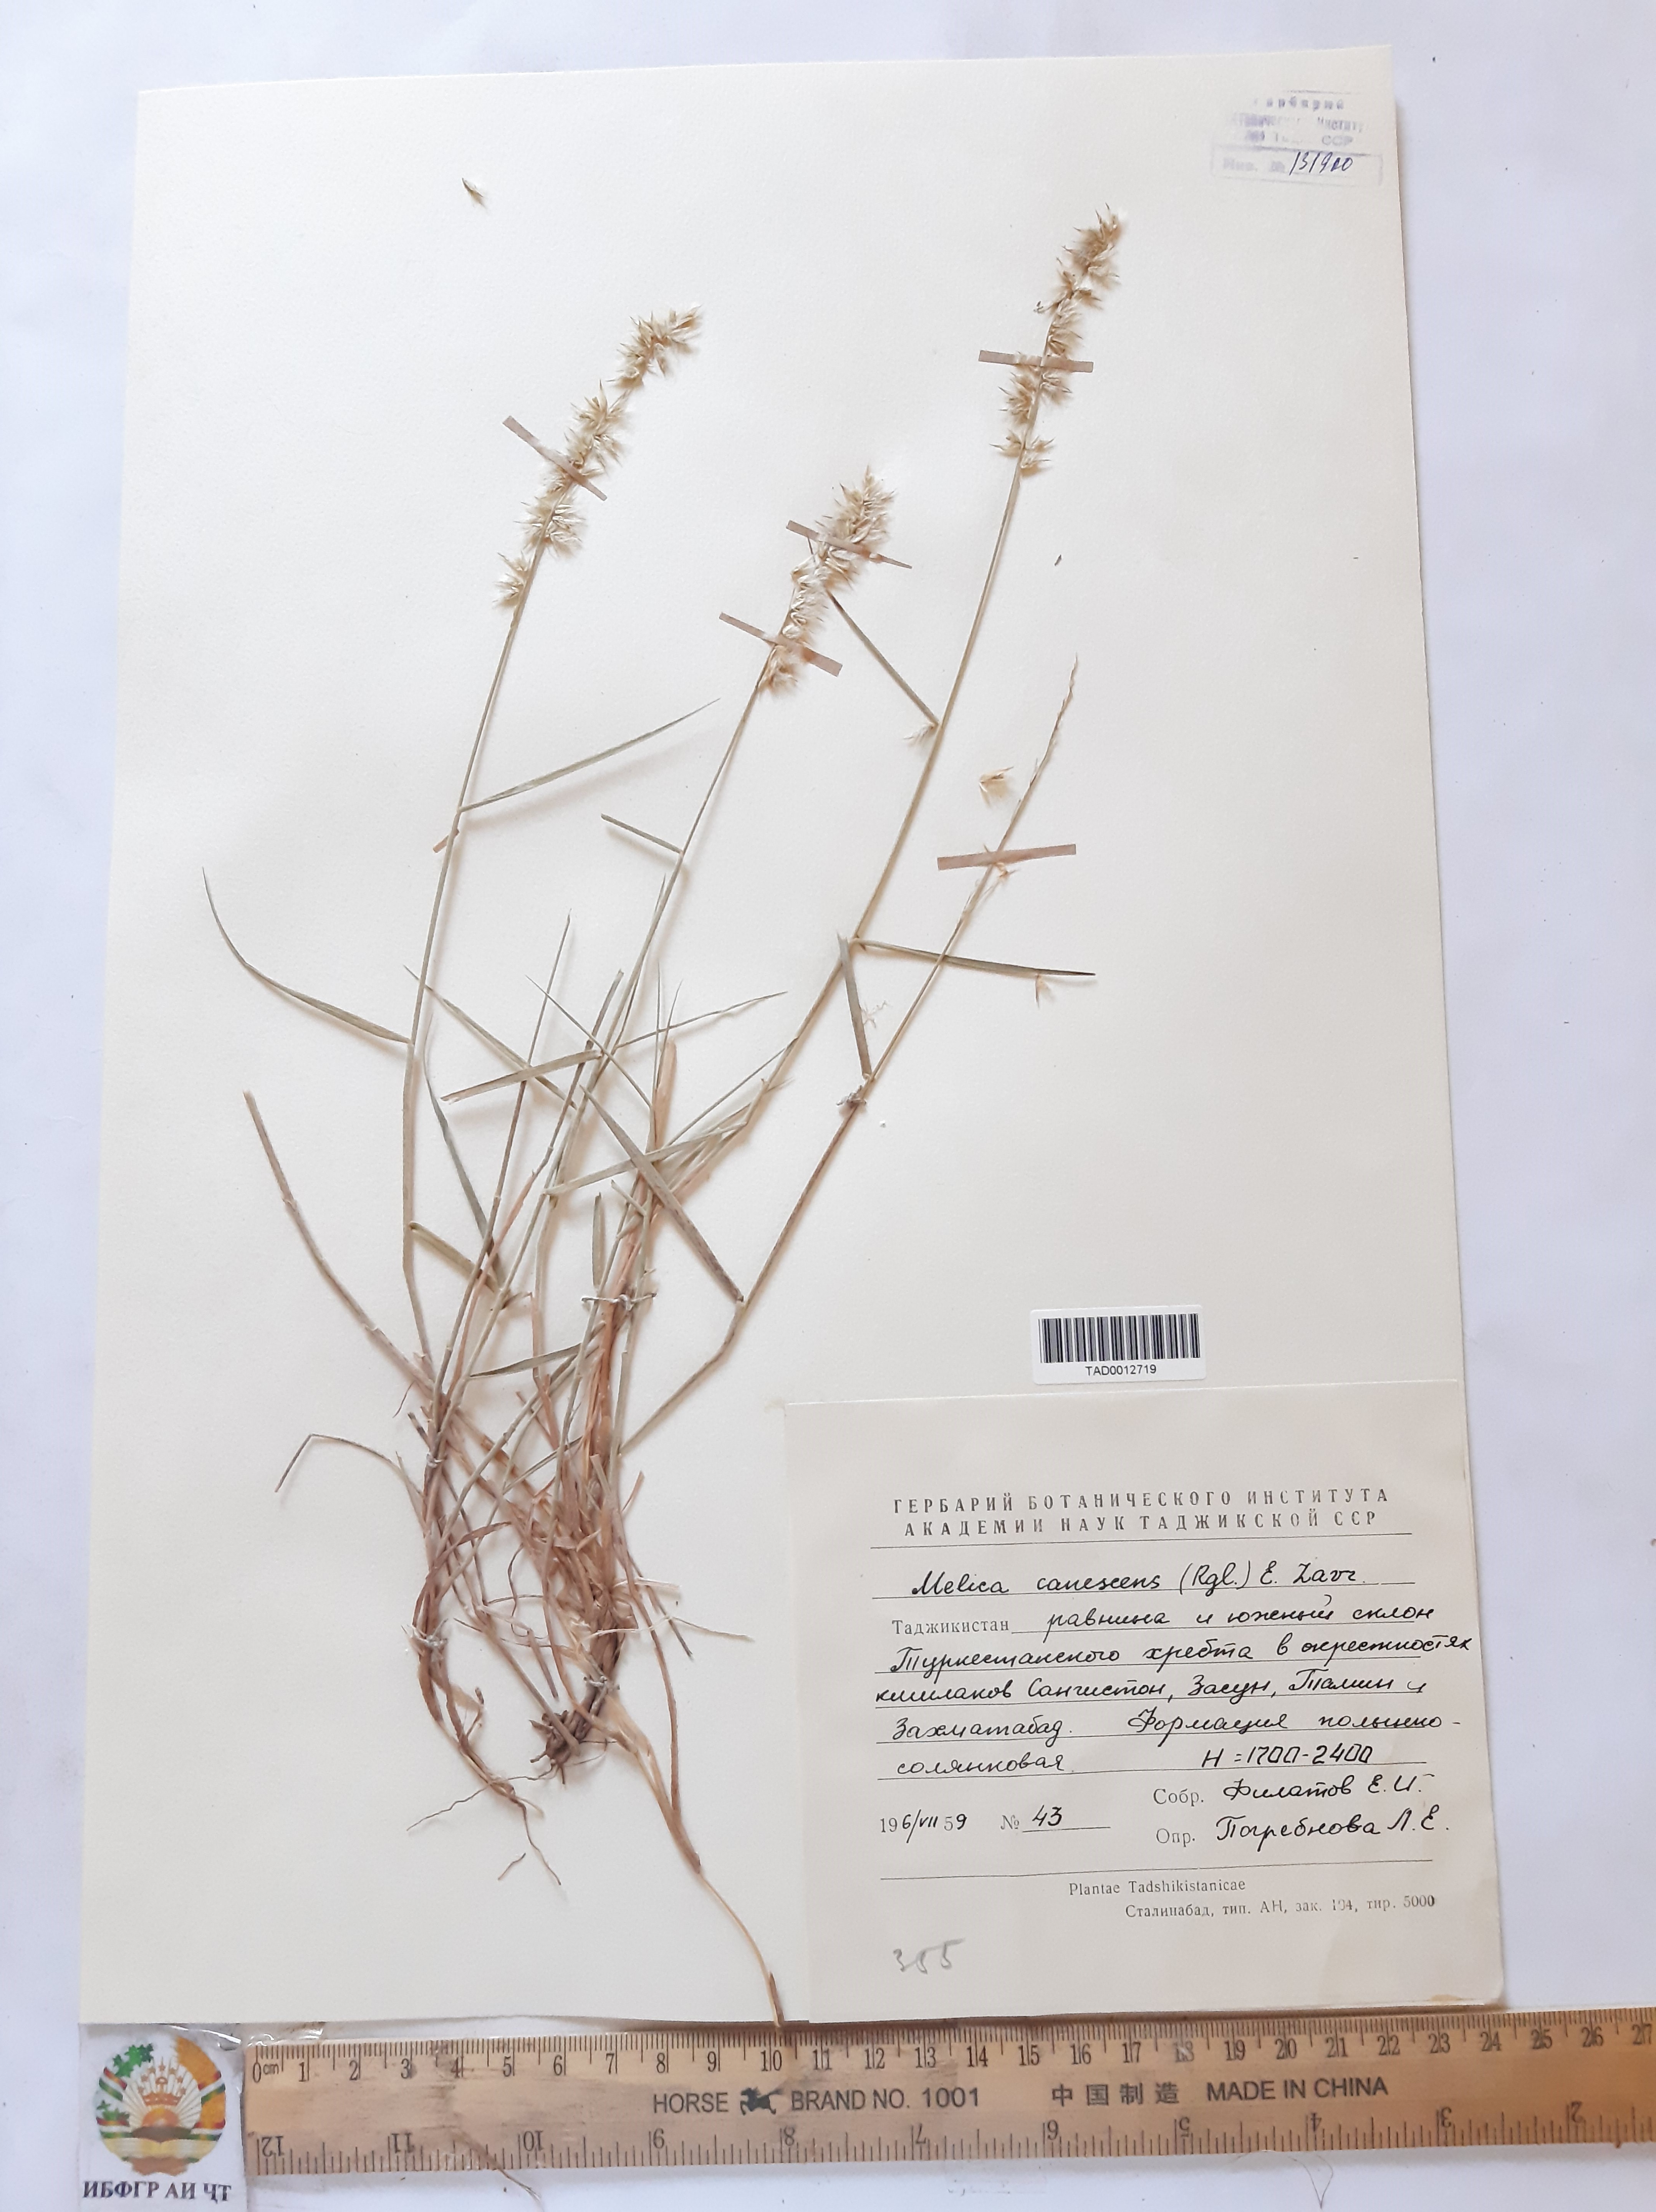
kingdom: Plantae
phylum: Tracheophyta
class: Liliopsida
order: Poales
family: Poaceae
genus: Melica
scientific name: Melica altissima
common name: Siberian melicgrass
